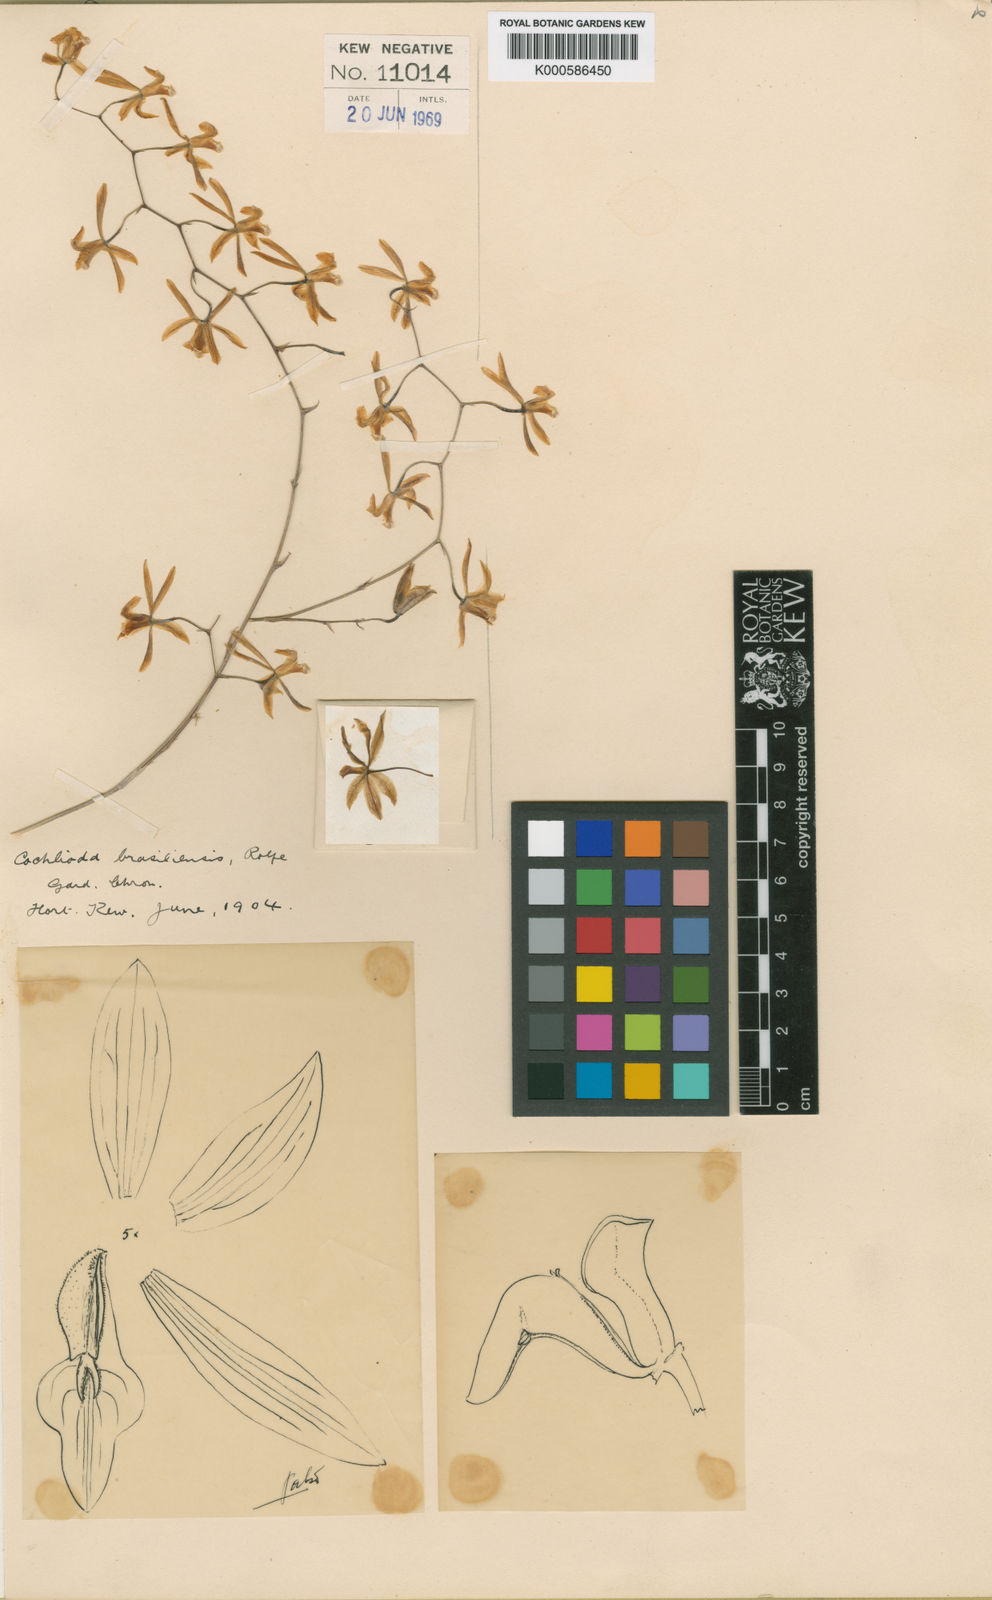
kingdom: Plantae
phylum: Tracheophyta
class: Liliopsida
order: Asparagales
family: Orchidaceae
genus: Gomesa
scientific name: Gomesa brasiliensis
